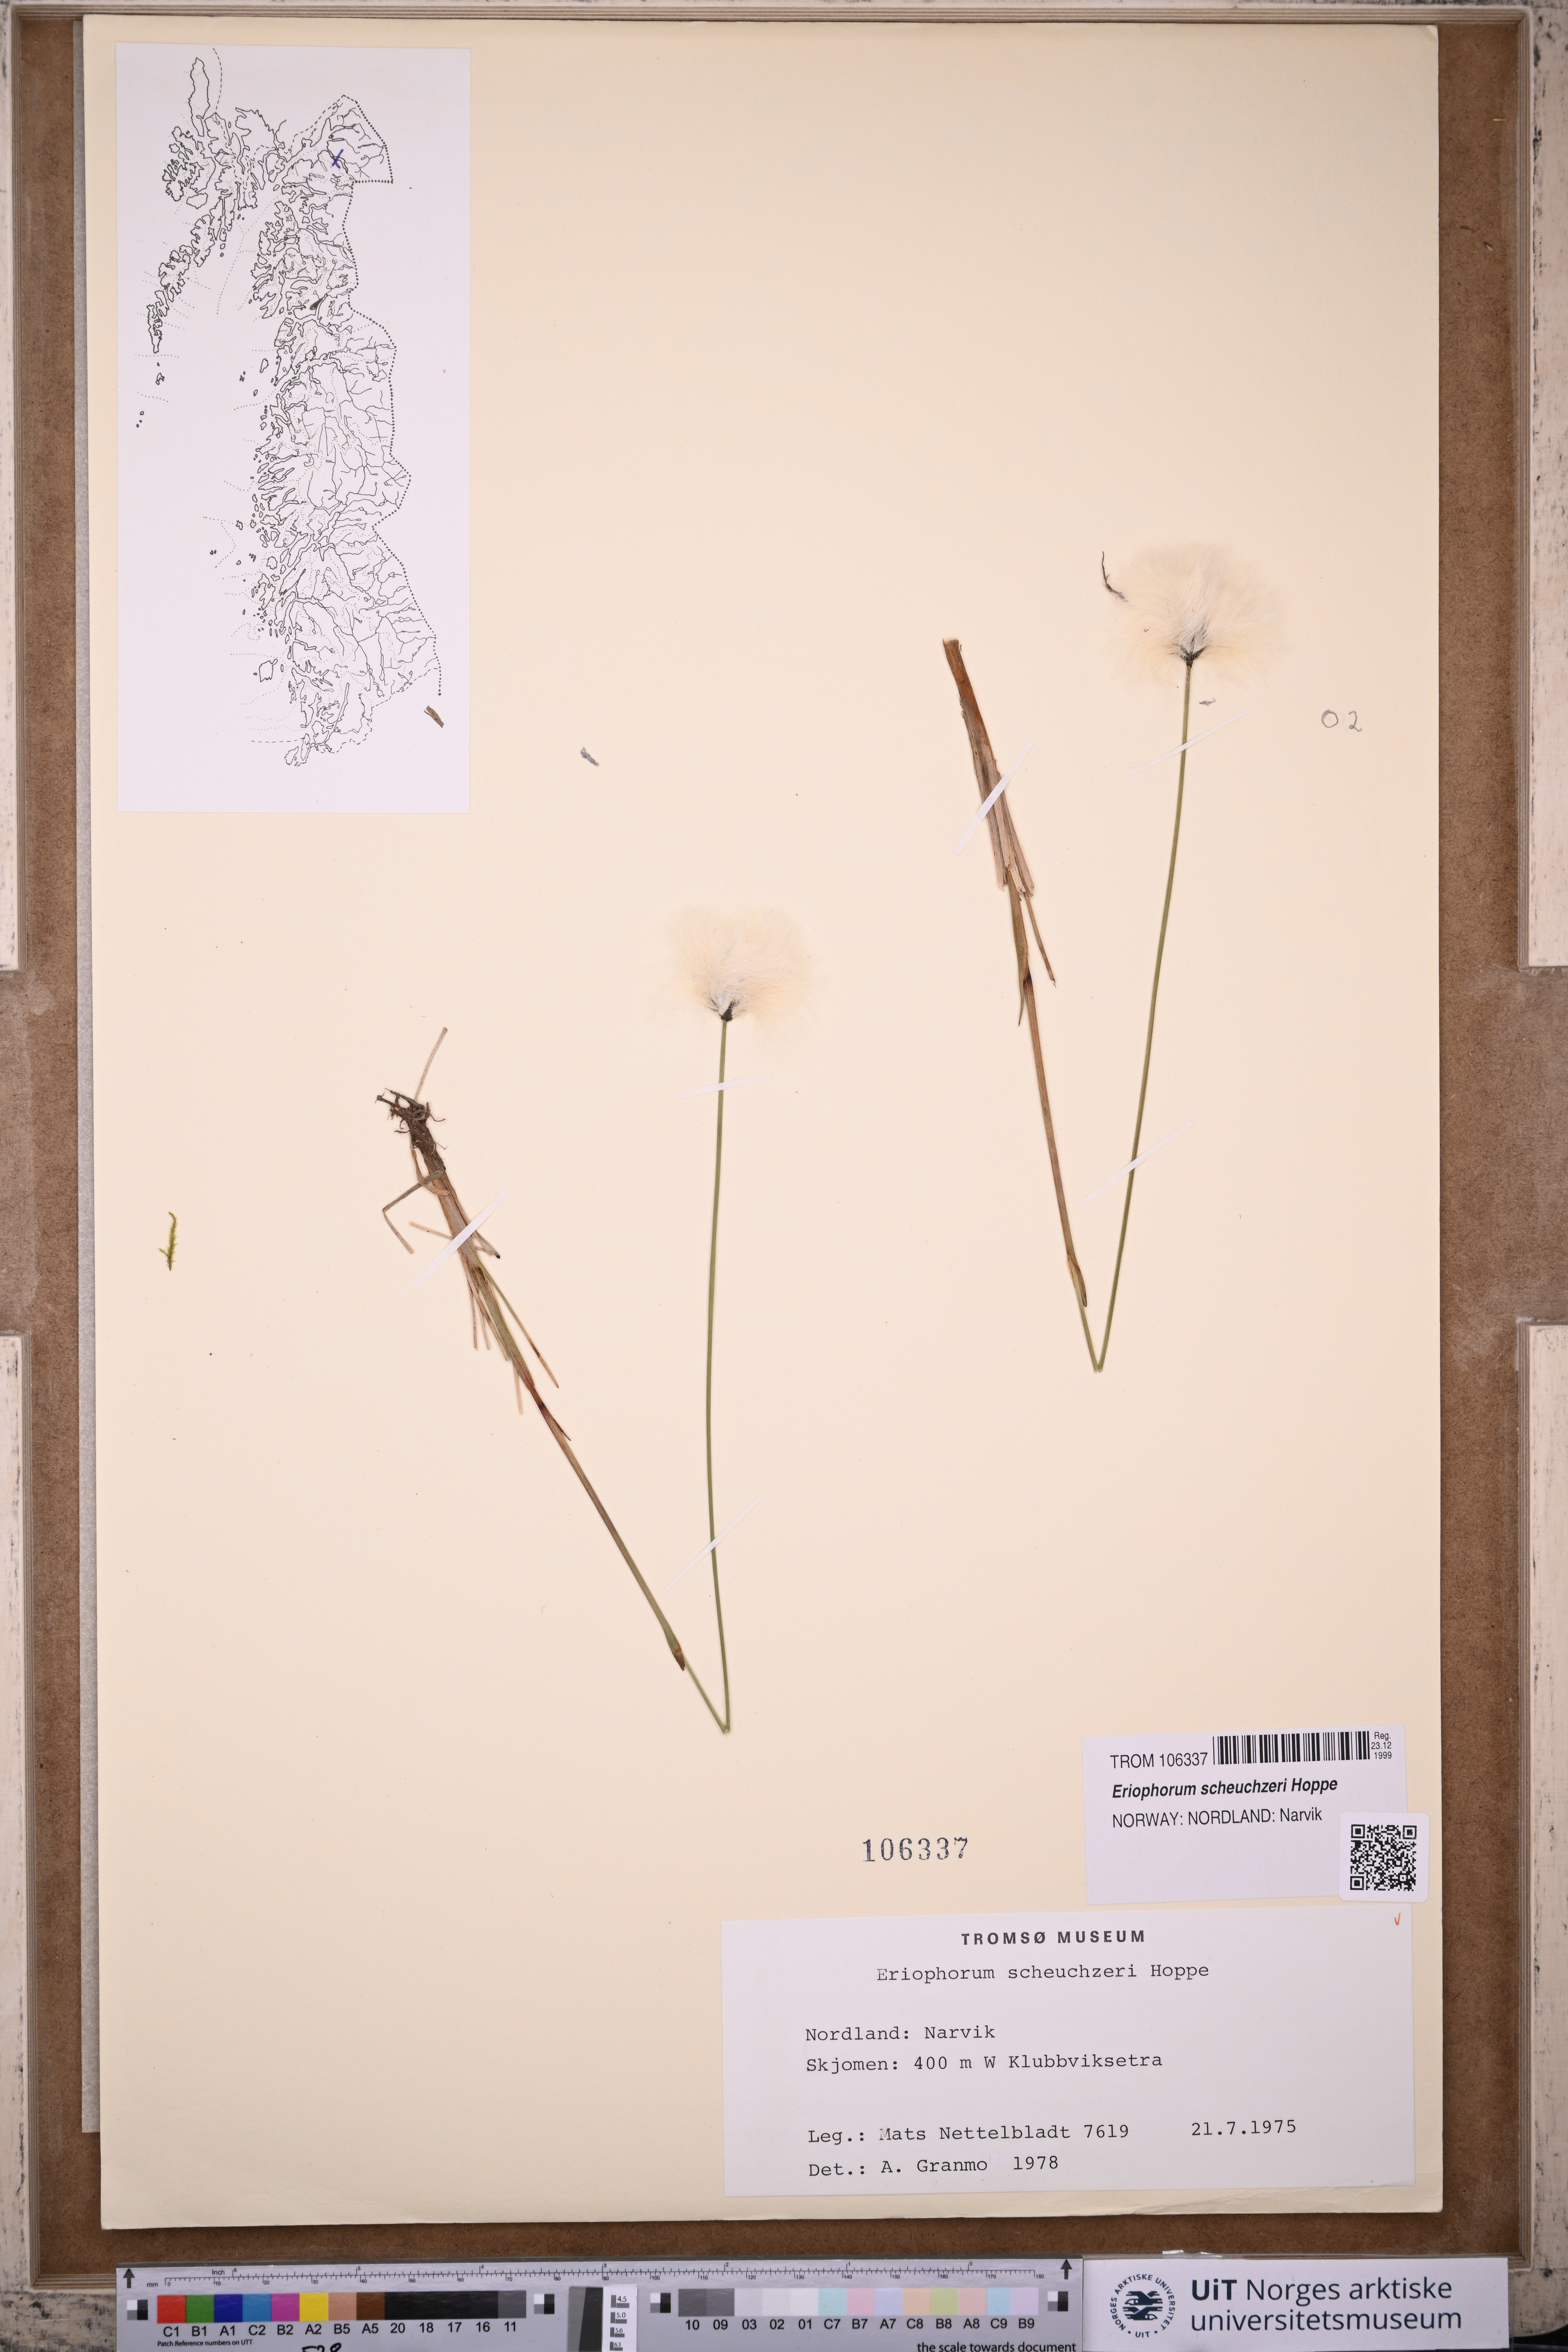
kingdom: Plantae
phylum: Tracheophyta
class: Liliopsida
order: Poales
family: Cyperaceae
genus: Eriophorum
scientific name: Eriophorum scheuchzeri
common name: Scheuchzer's cottongrass
